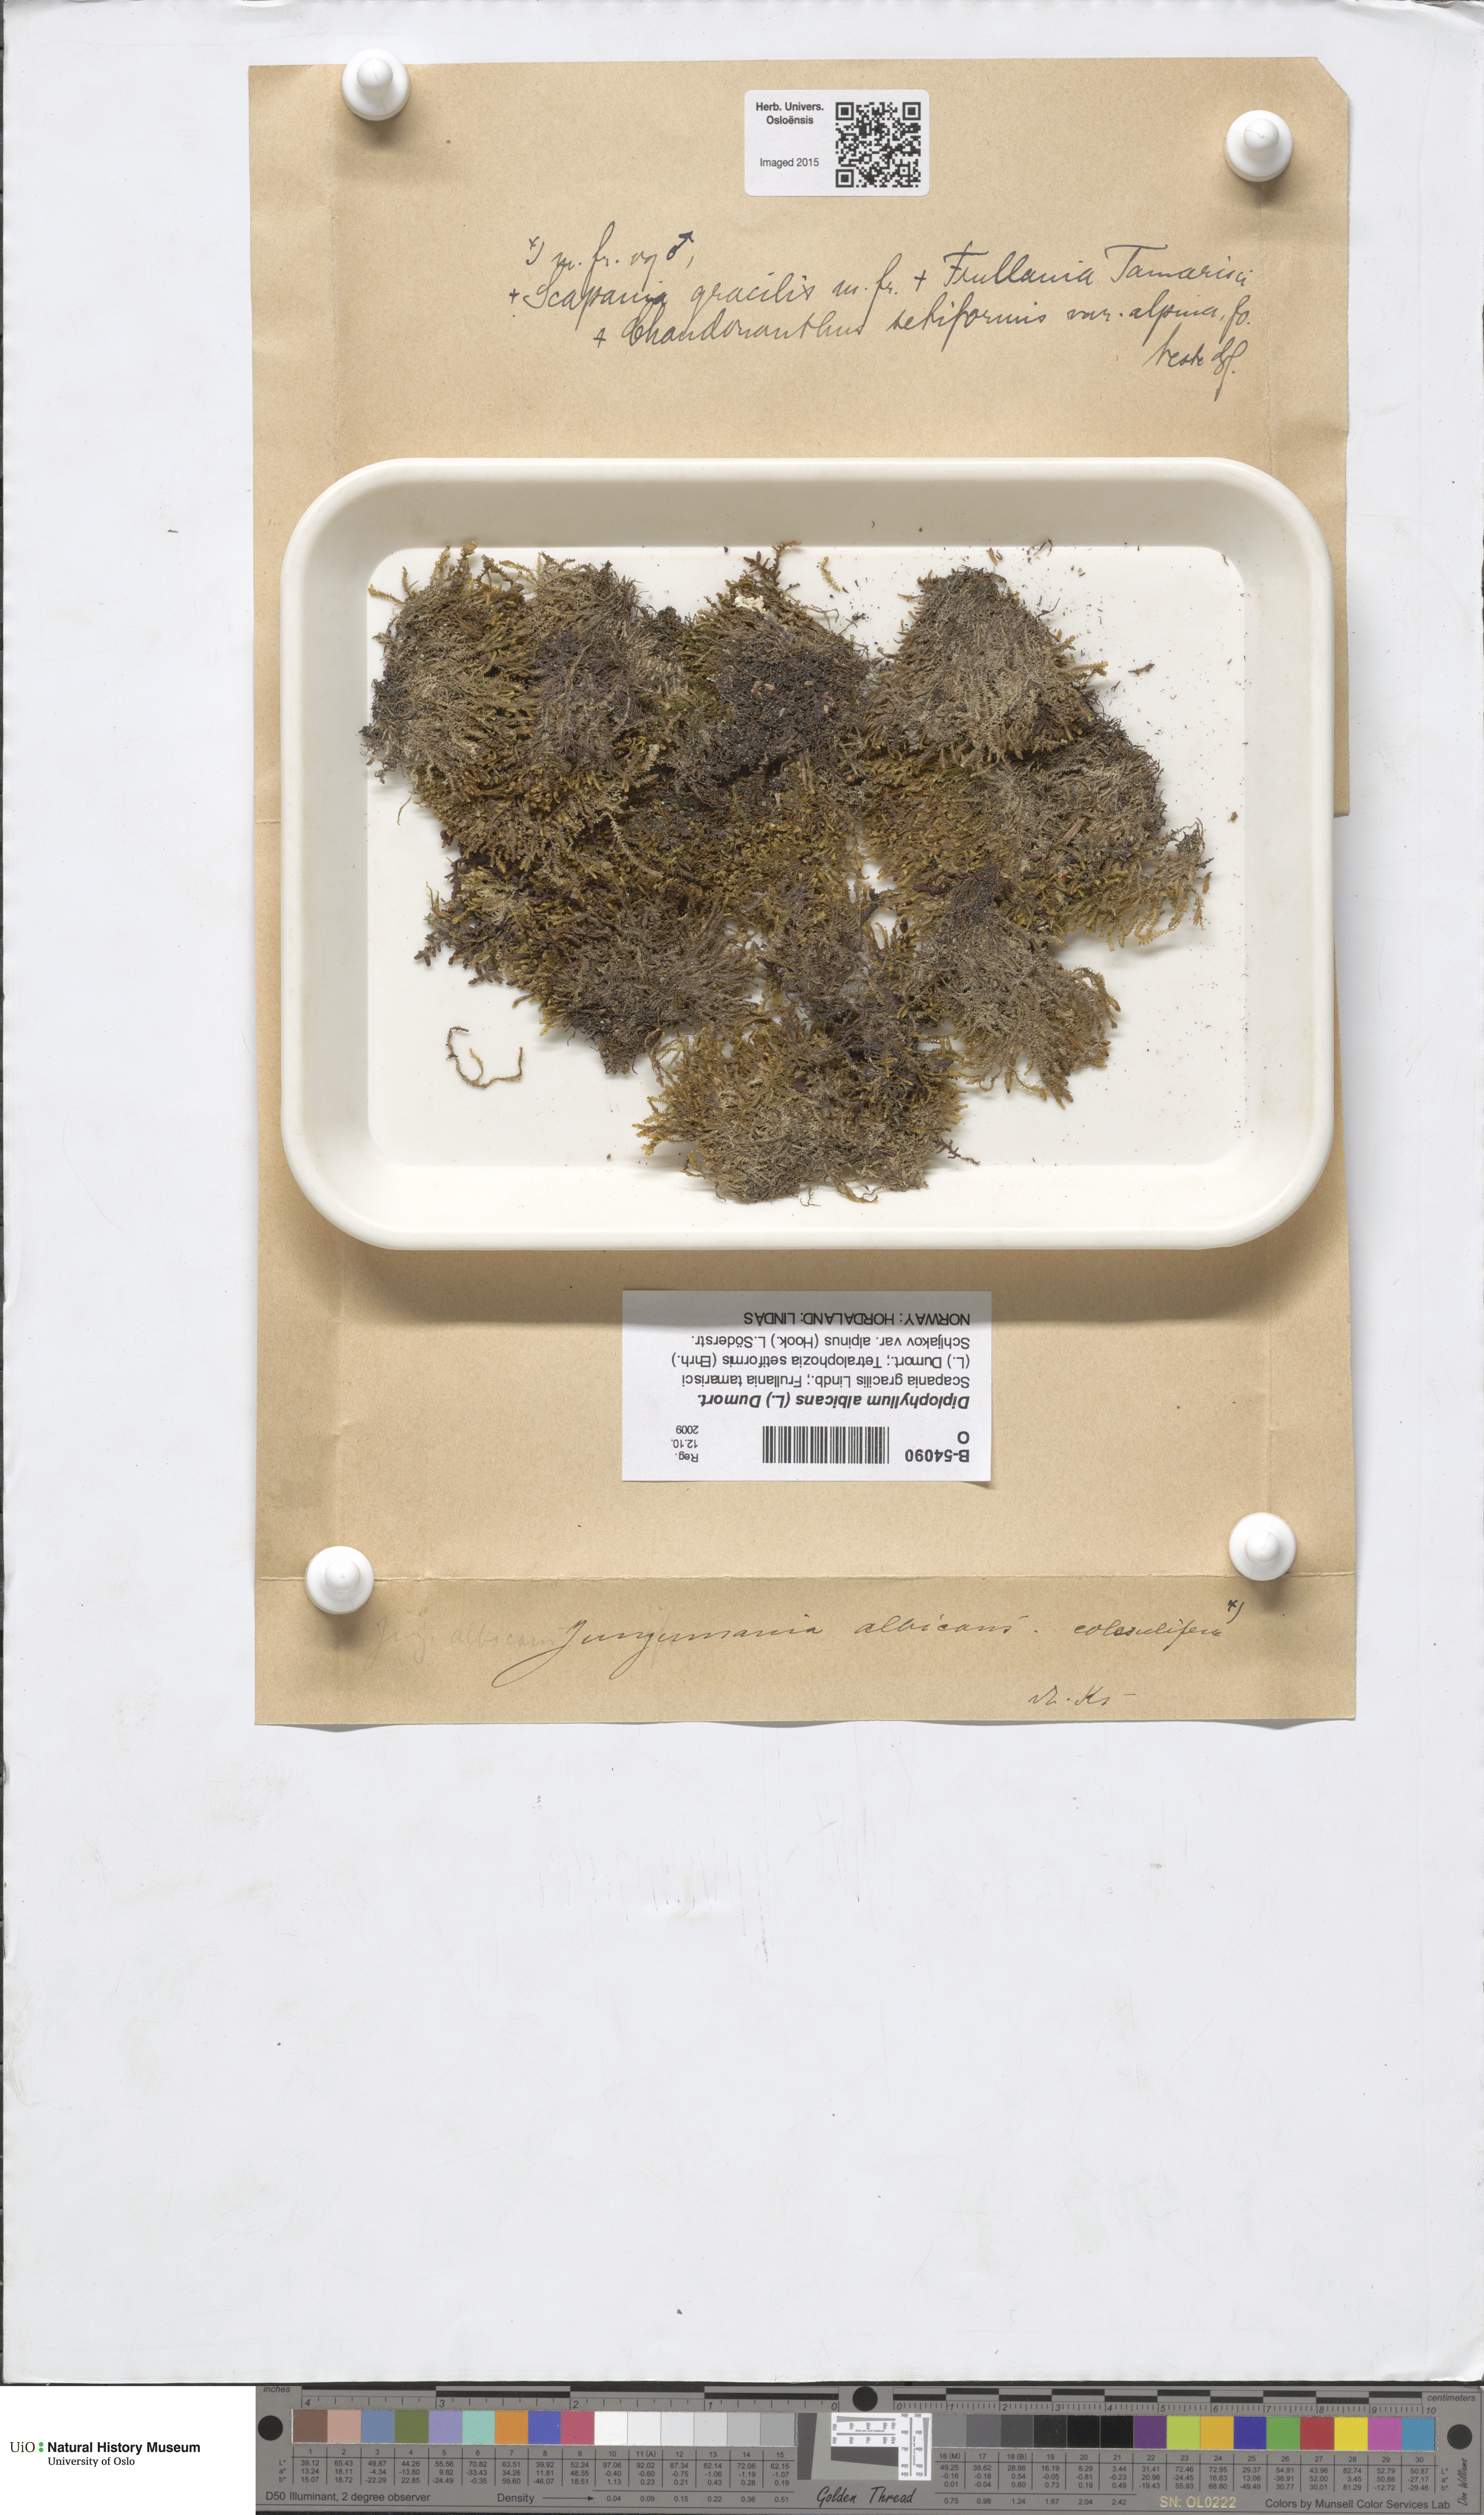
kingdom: Plantae
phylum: Marchantiophyta
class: Jungermanniopsida
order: Jungermanniales
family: Scapaniaceae
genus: Diplophyllum
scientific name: Diplophyllum albicans
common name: White earwort
